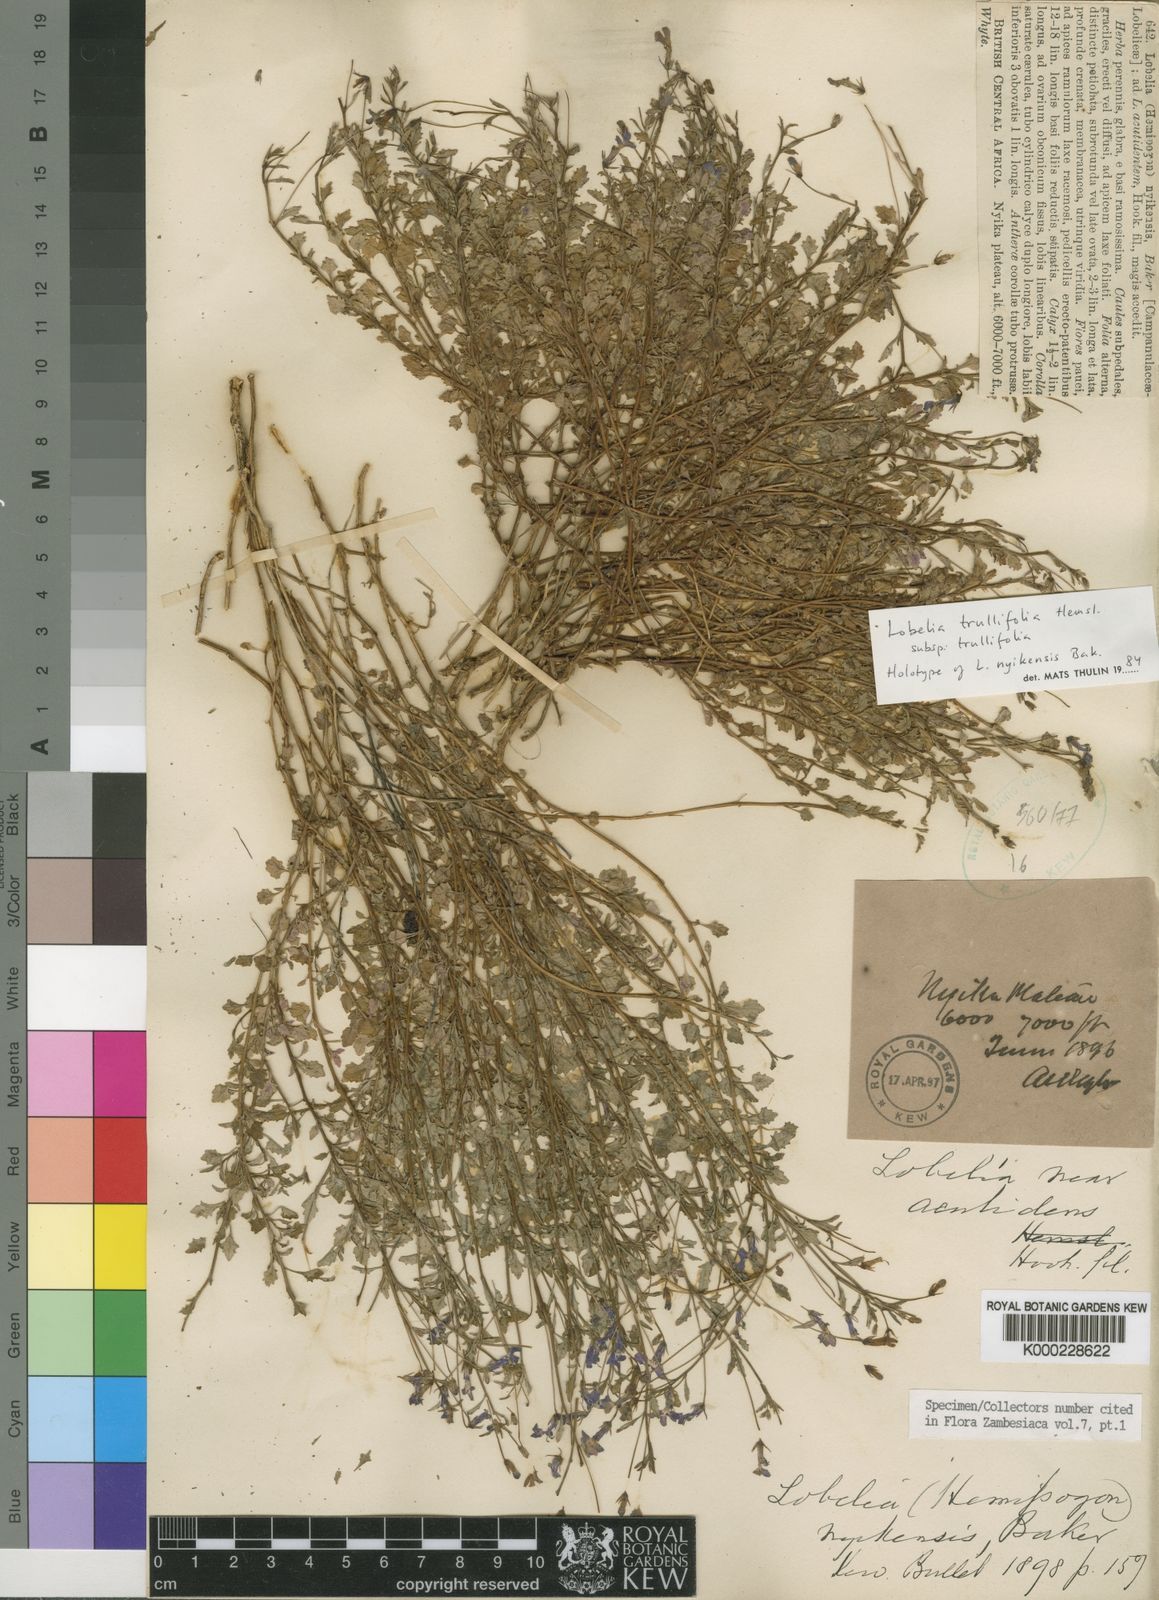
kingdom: Plantae
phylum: Tracheophyta
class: Magnoliopsida
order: Asterales
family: Campanulaceae
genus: Lobelia
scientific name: Lobelia trullifolia
